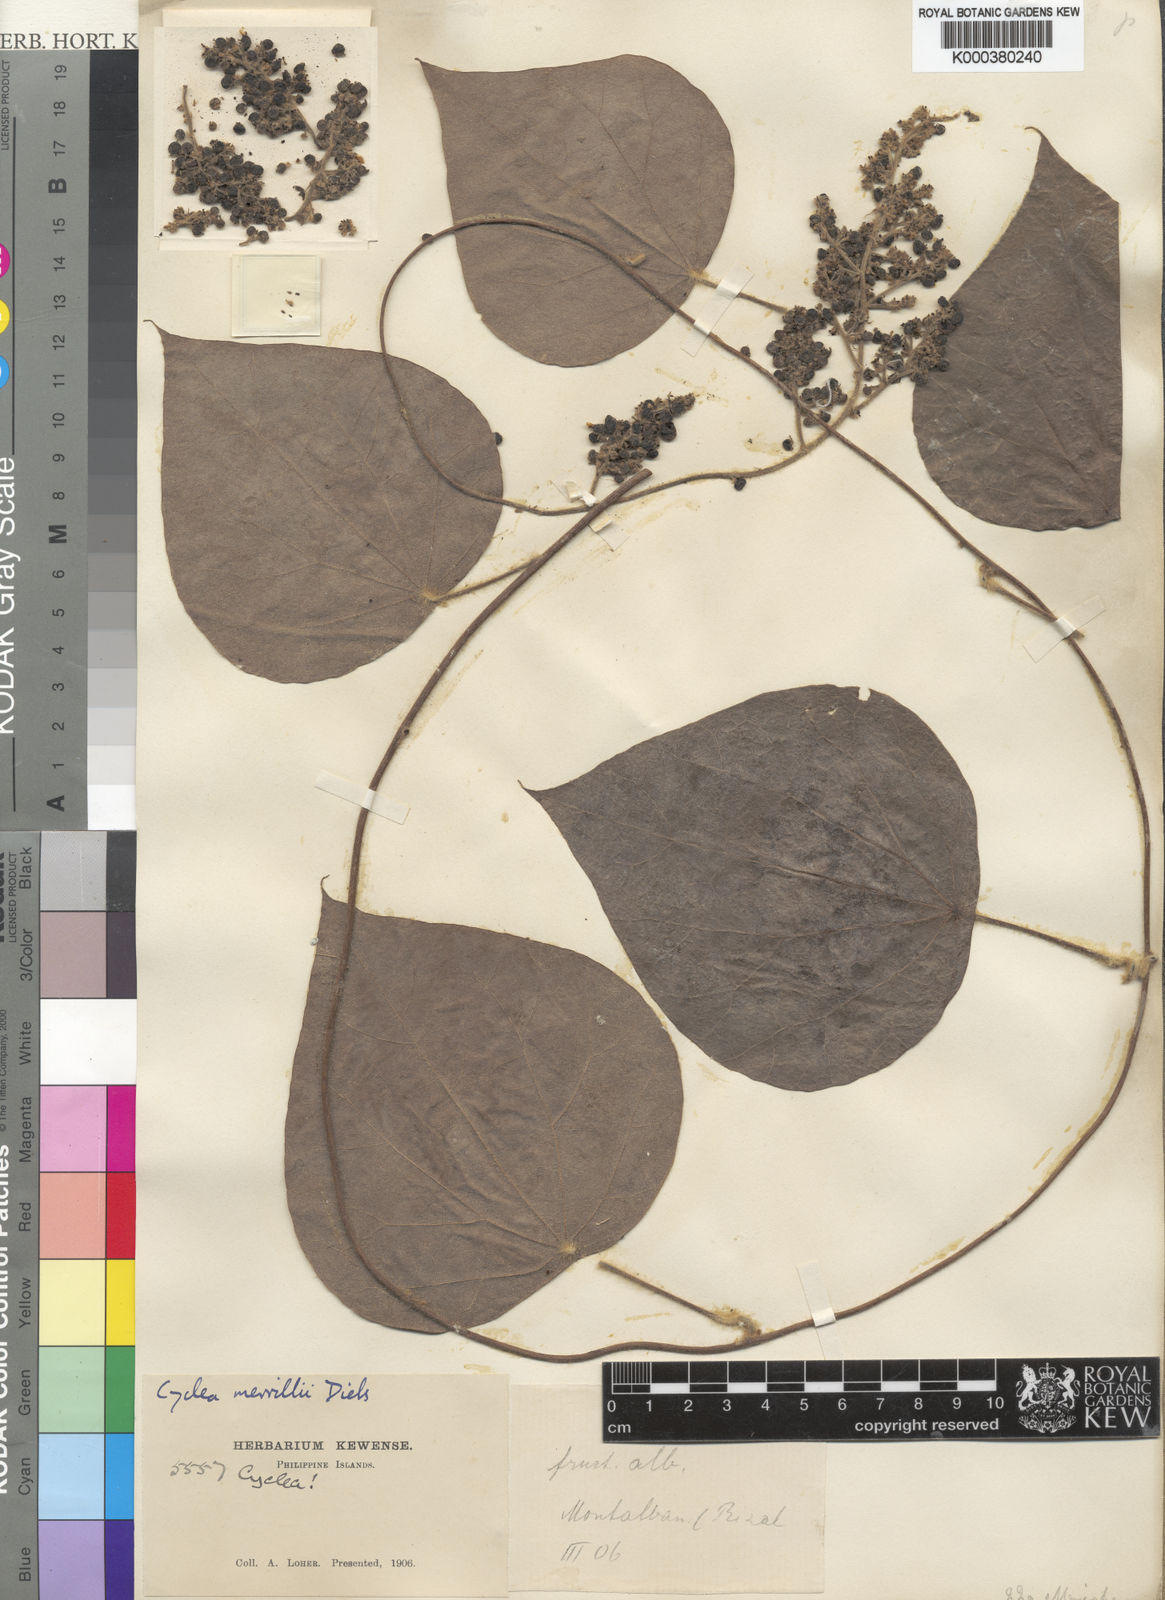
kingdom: Plantae
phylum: Tracheophyta
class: Magnoliopsida
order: Ranunculales
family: Menispermaceae
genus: Cyclea
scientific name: Cyclea merrillii
